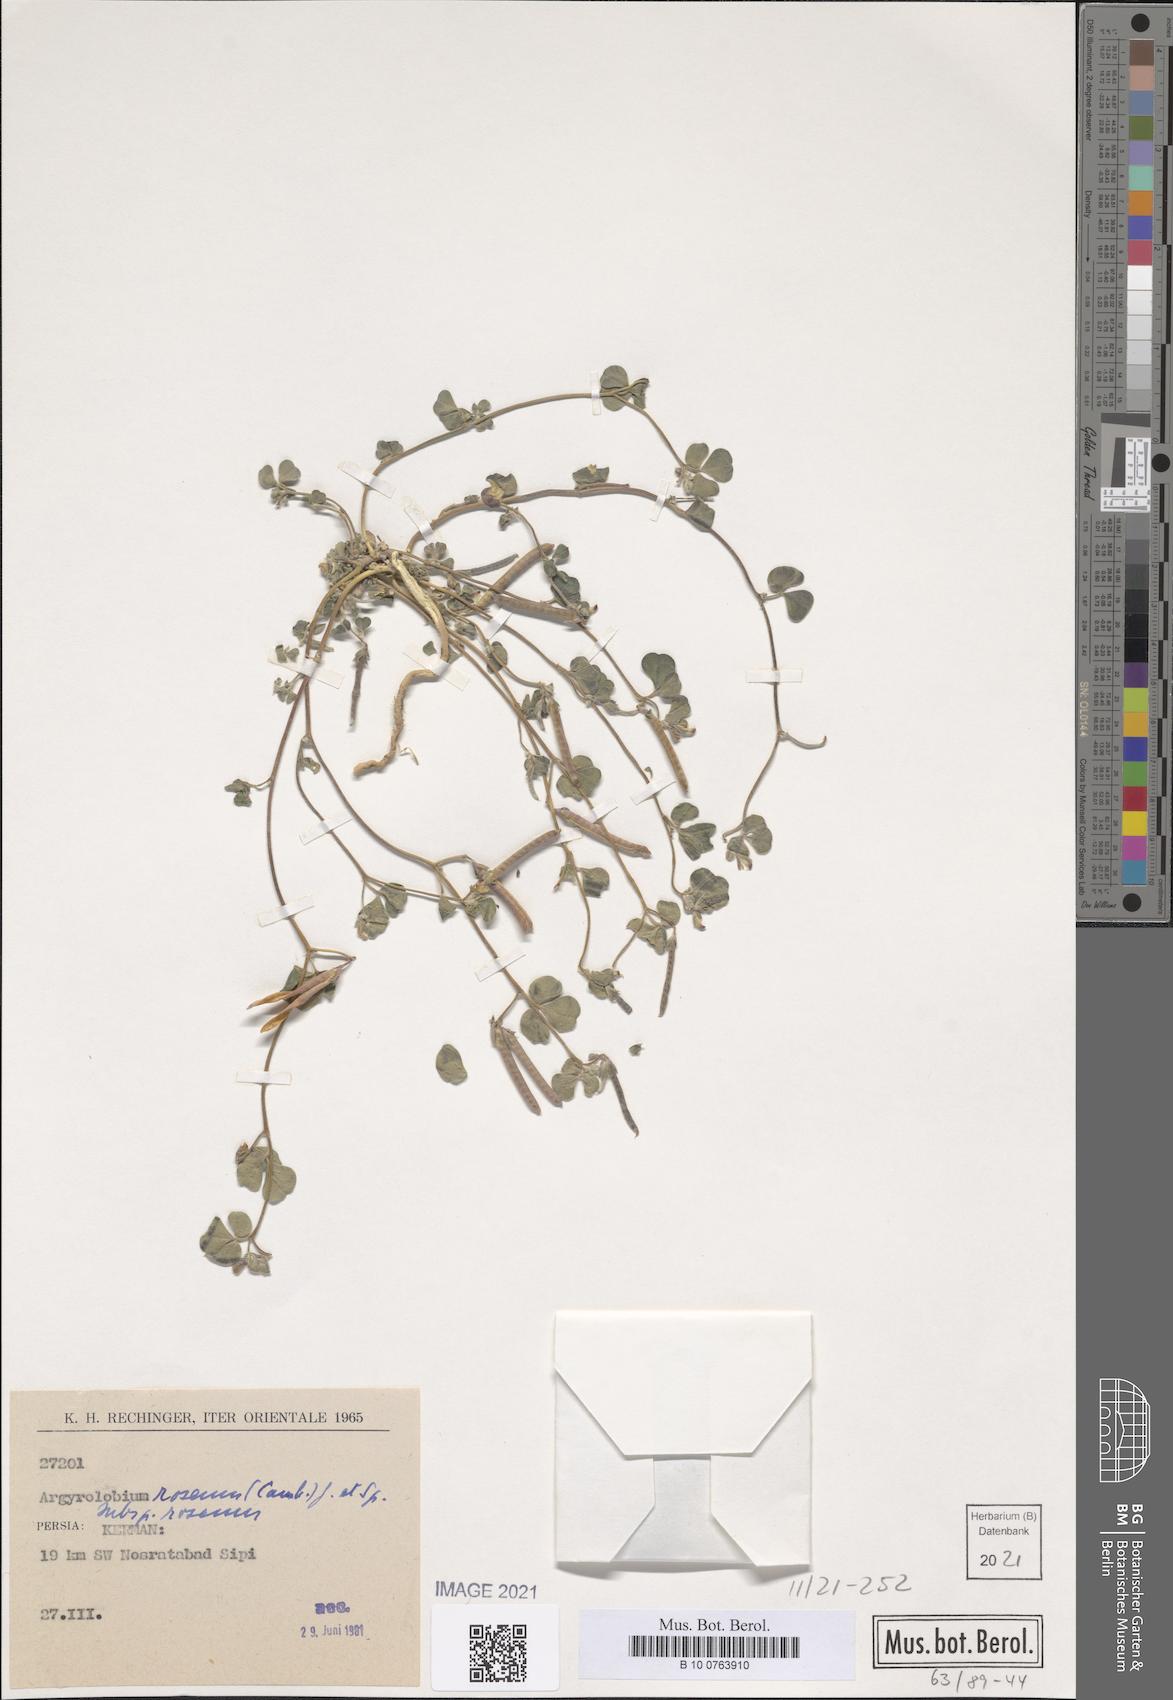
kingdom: Plantae
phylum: Tracheophyta
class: Magnoliopsida
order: Fabales
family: Fabaceae
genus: Argyrolobium
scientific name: Argyrolobium roseum
